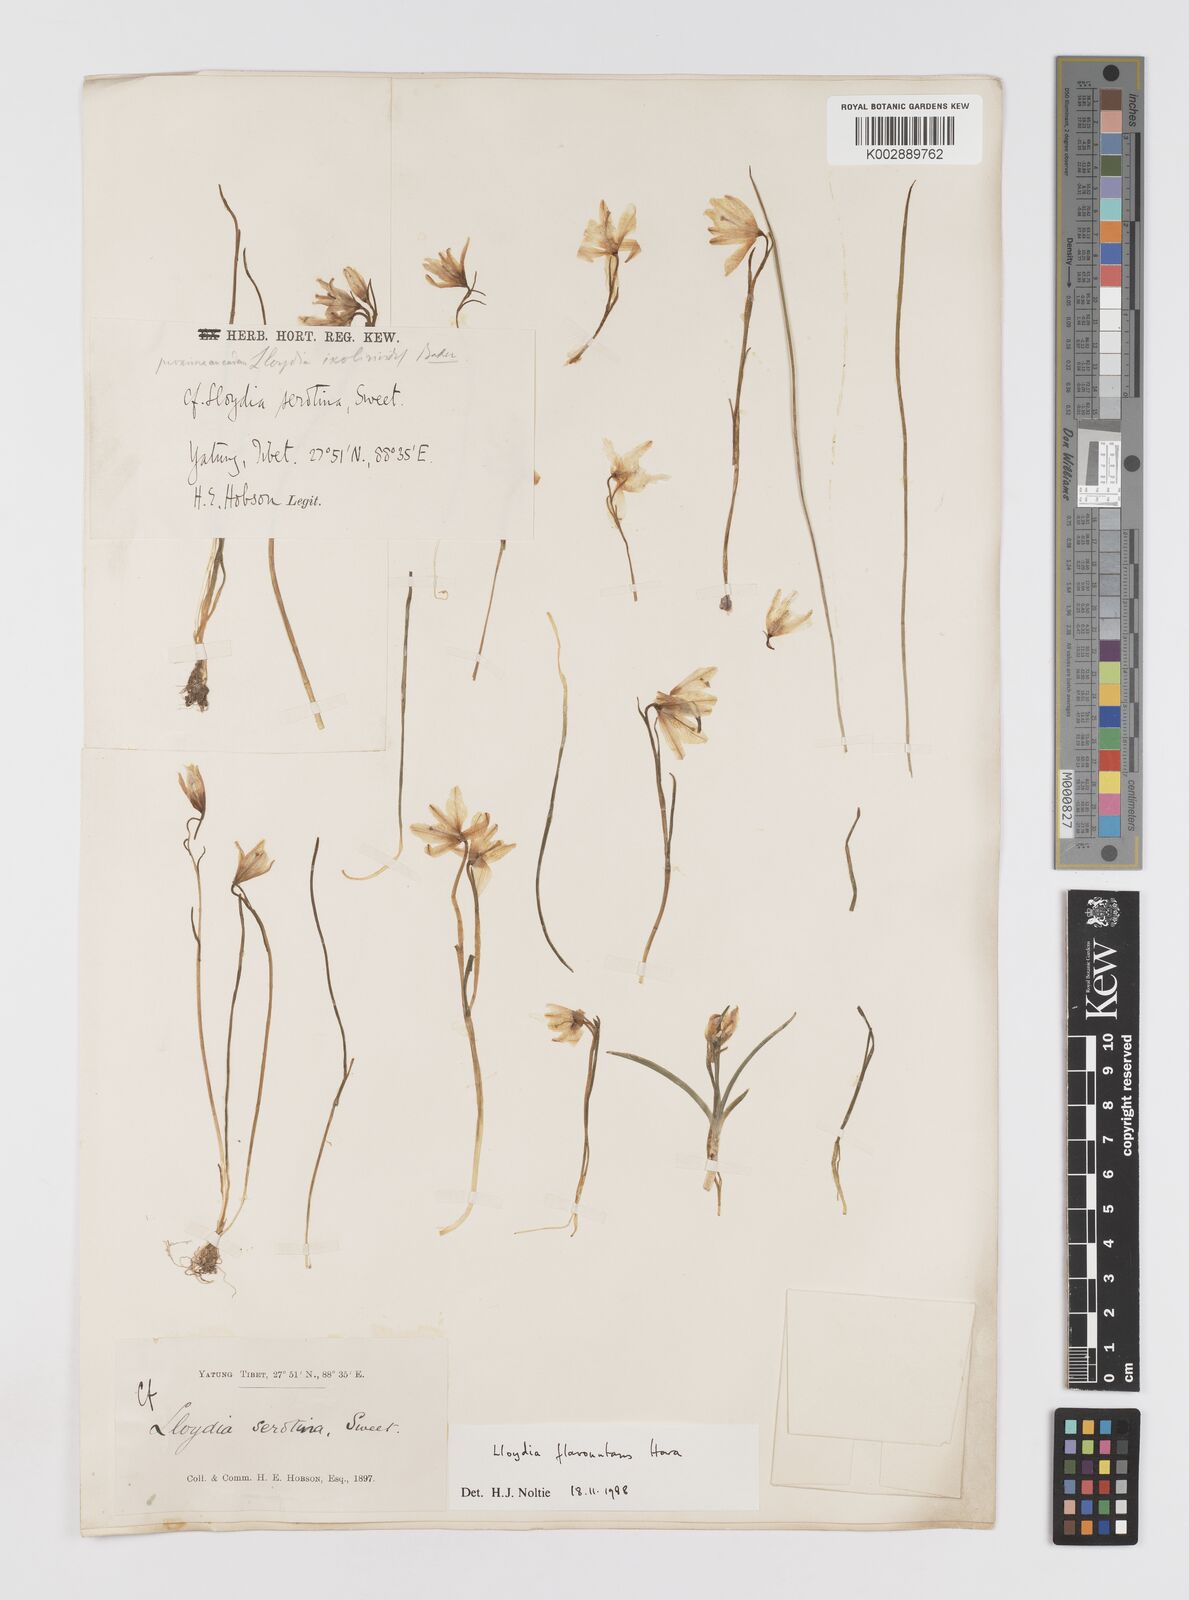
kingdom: Plantae
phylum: Tracheophyta
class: Liliopsida
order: Liliales
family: Liliaceae
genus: Gagea
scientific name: Gagea flavonutans
